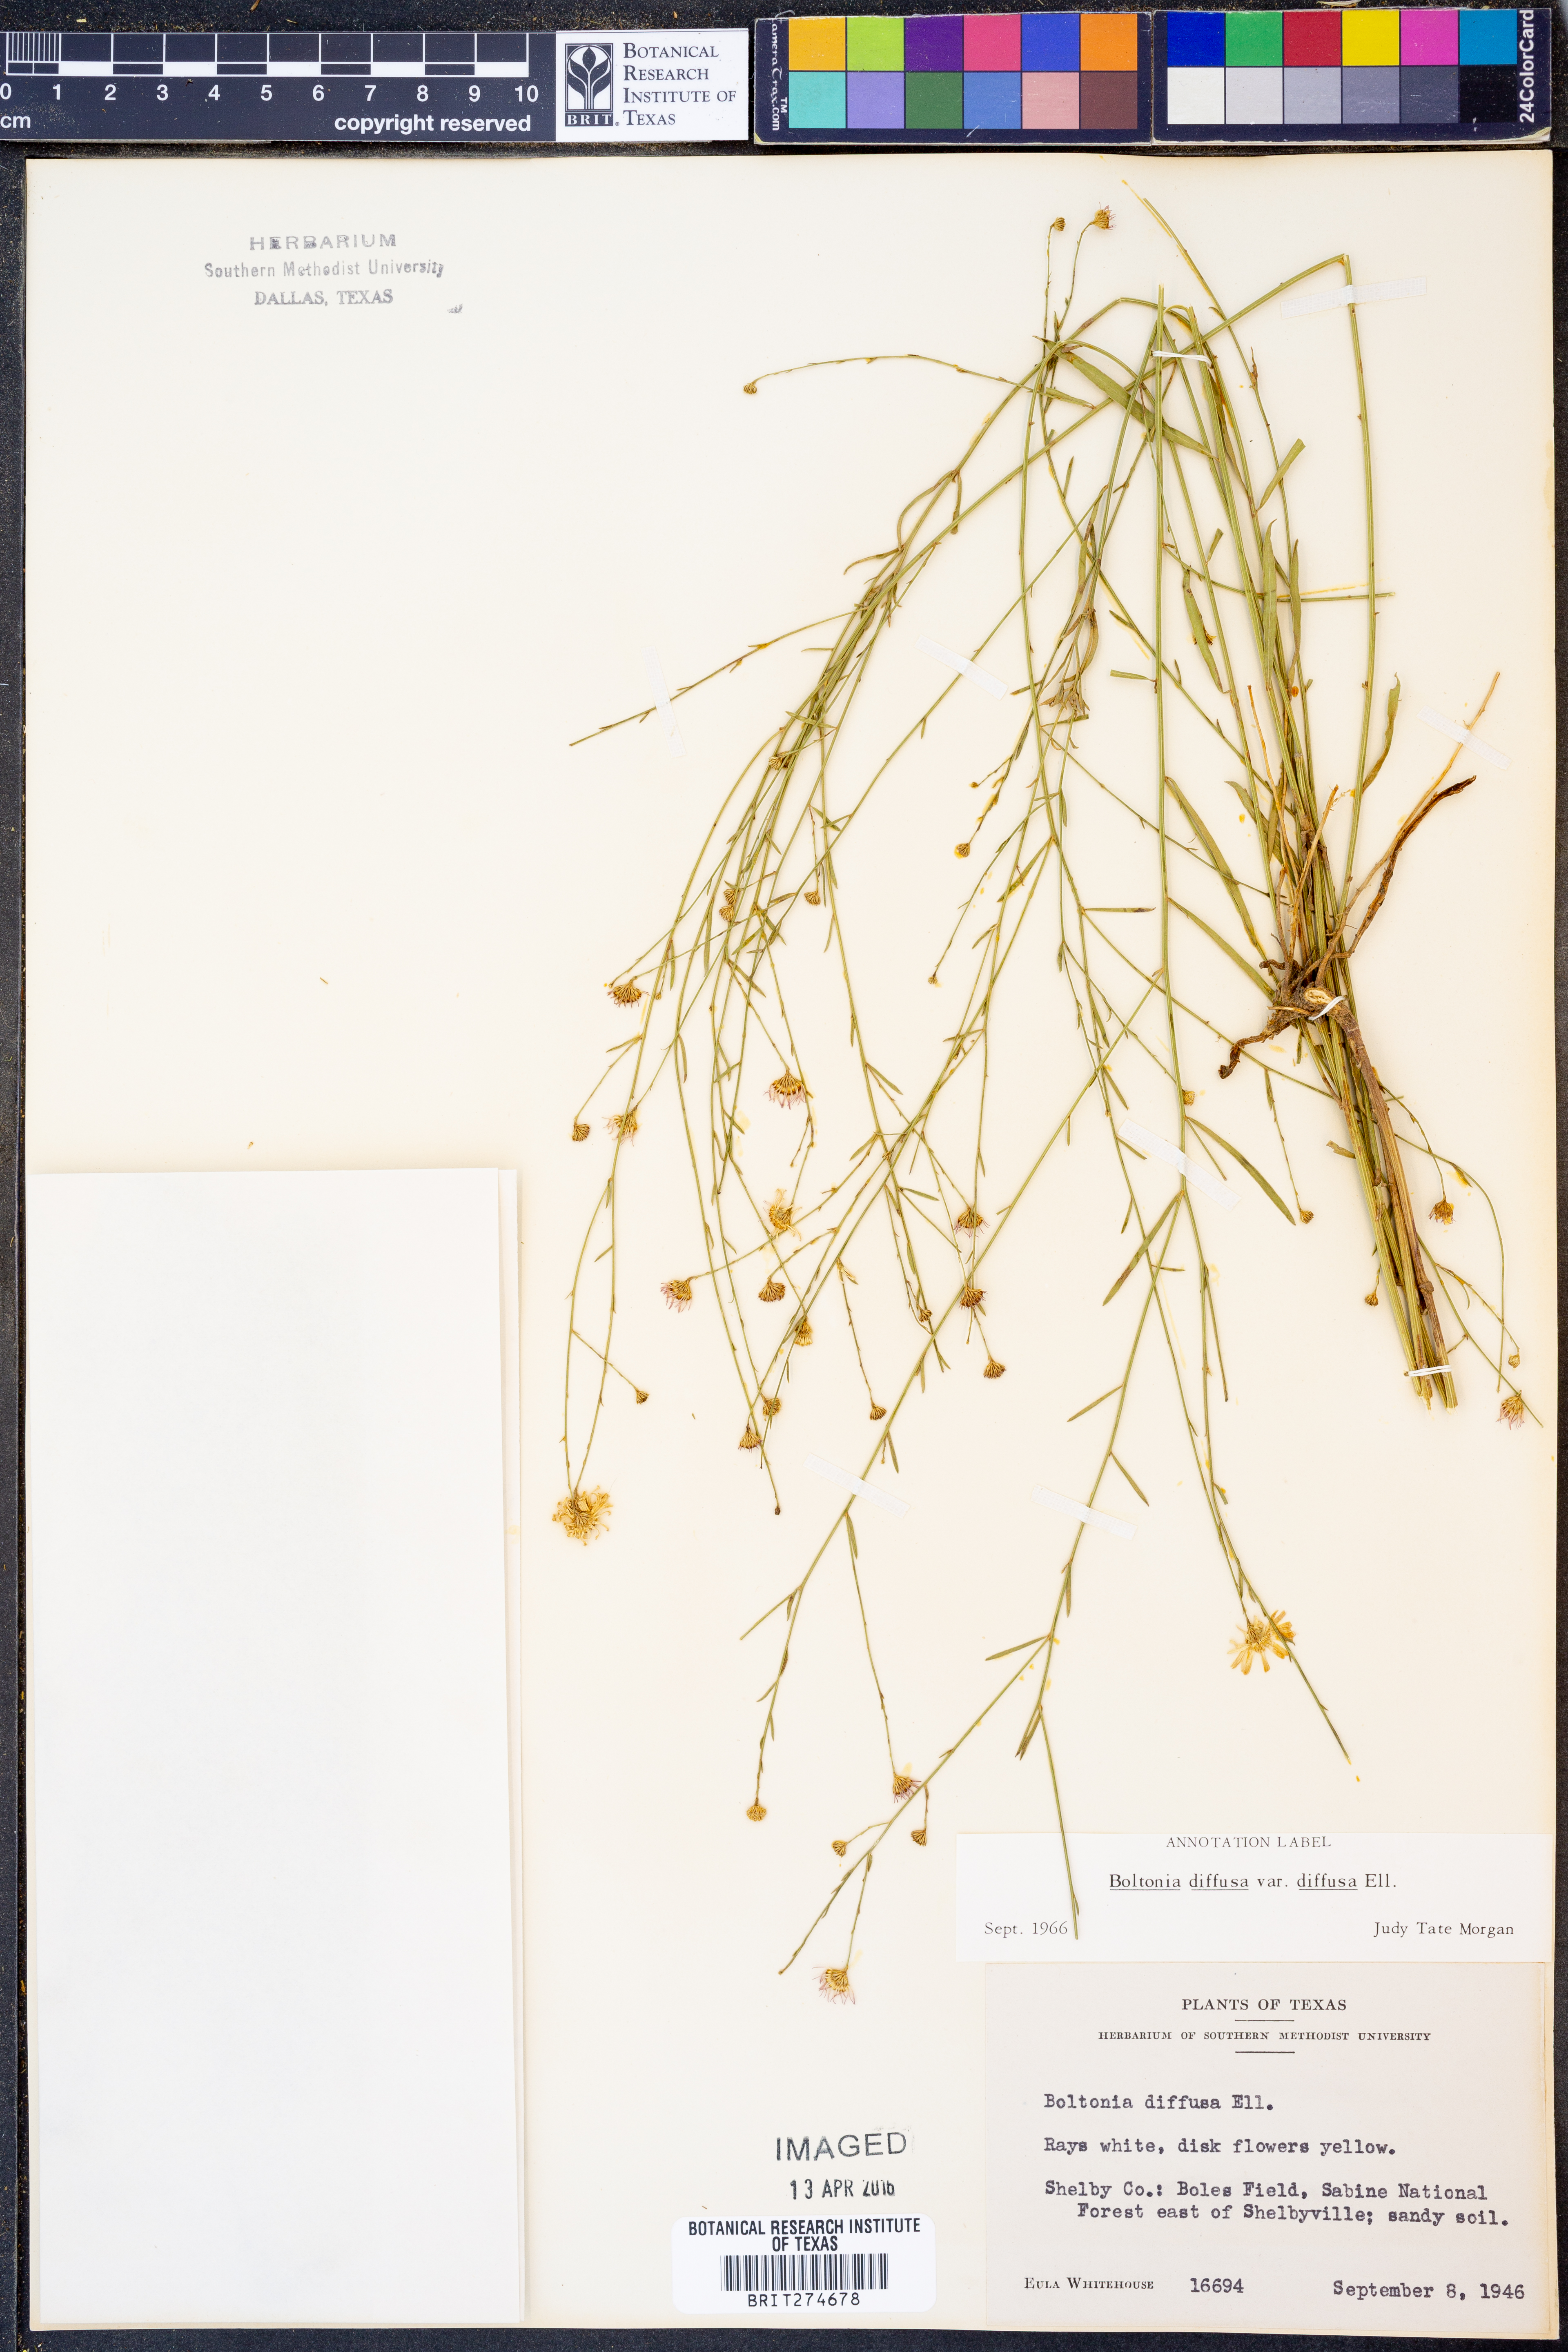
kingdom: Plantae
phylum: Tracheophyta
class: Magnoliopsida
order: Asterales
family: Asteraceae
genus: Boltonia
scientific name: Boltonia diffusa
